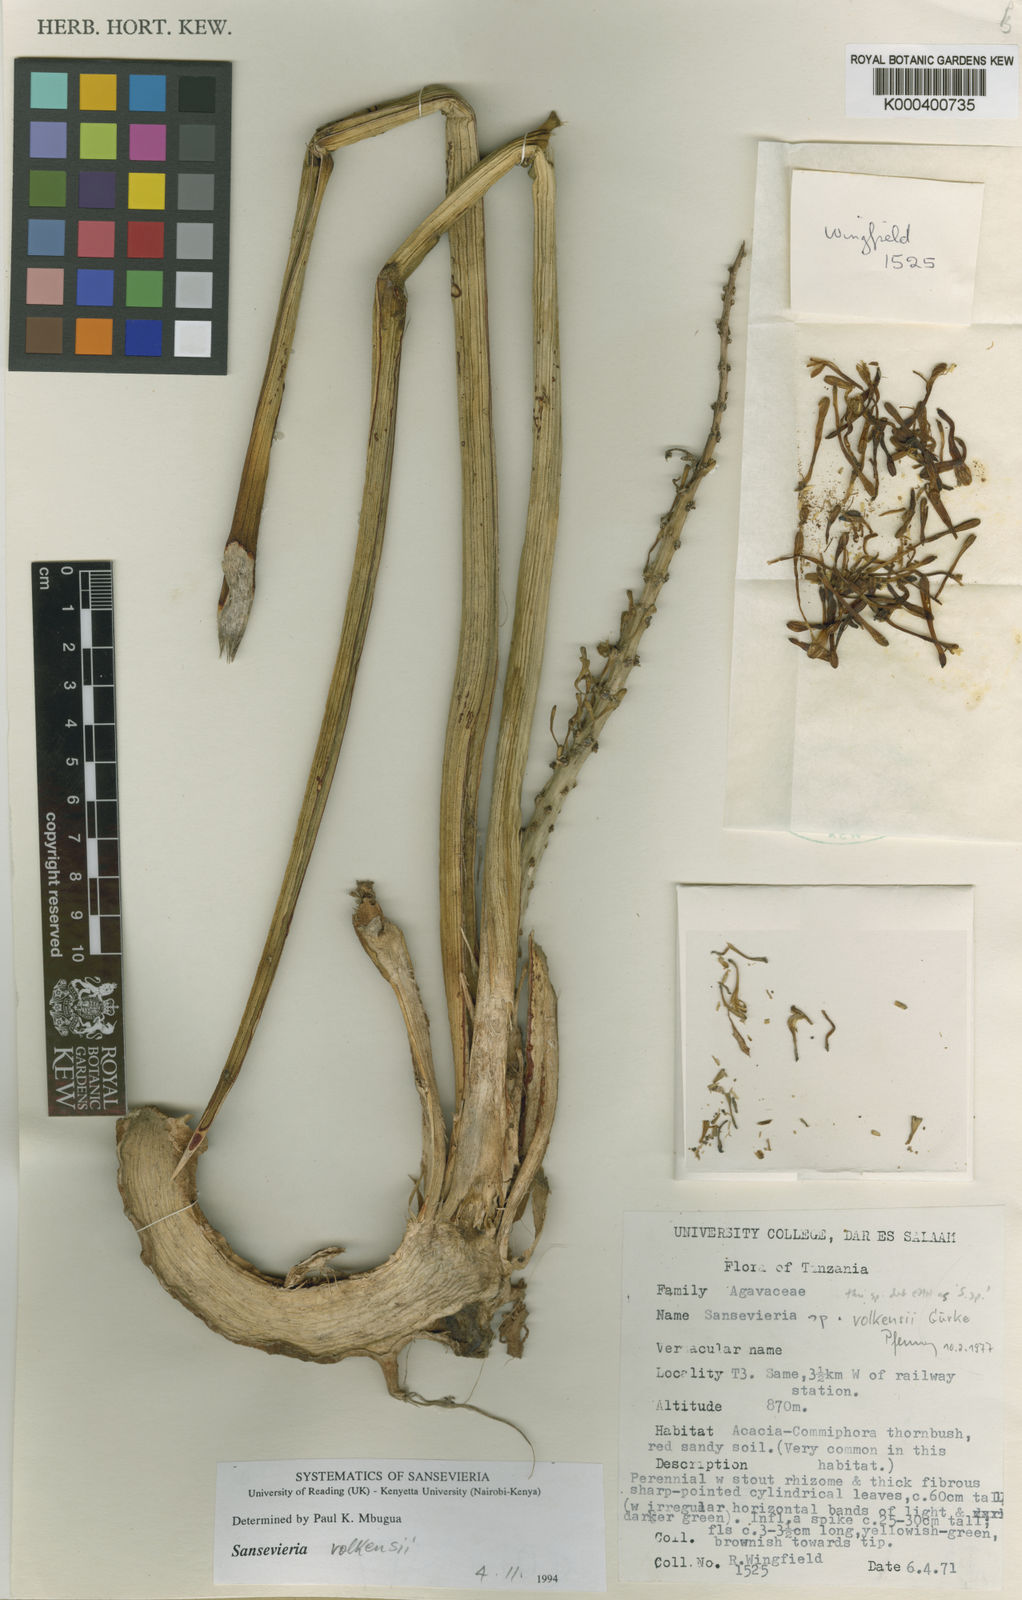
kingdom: Plantae
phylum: Tracheophyta
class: Liliopsida
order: Asparagales
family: Asparagaceae
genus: Dracaena
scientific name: Dracaena volkensii
